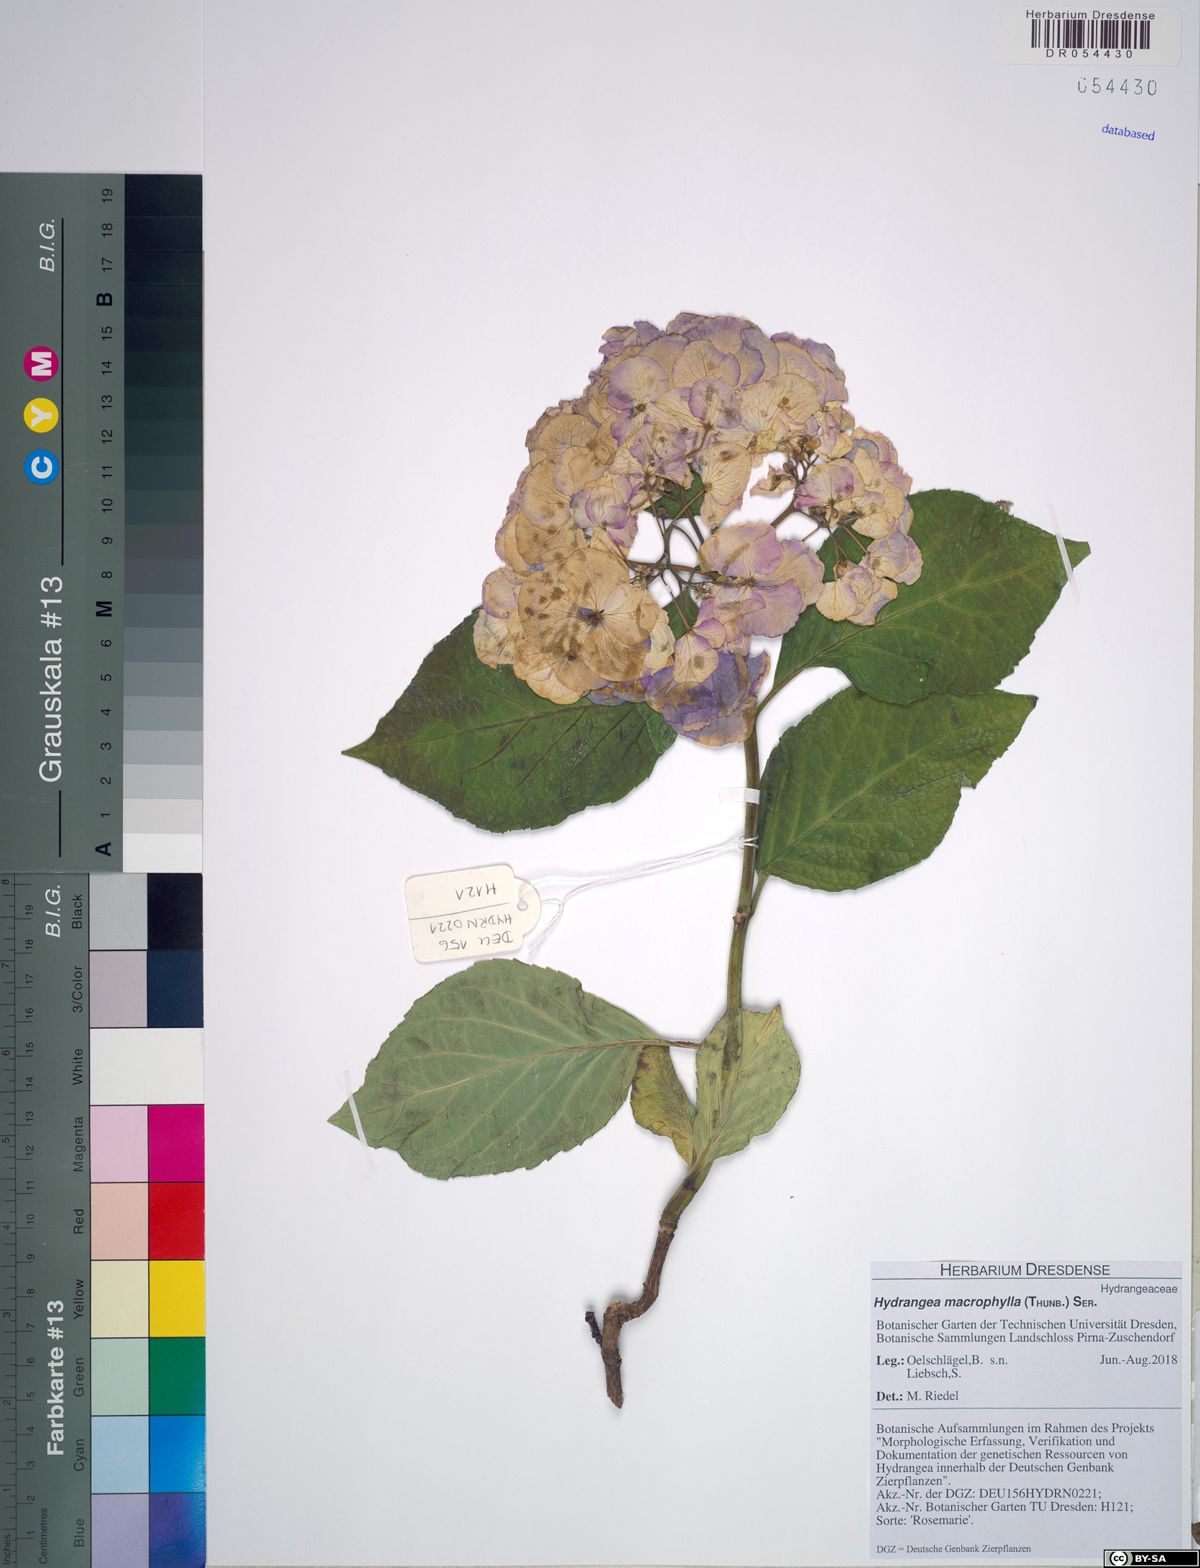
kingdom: Plantae
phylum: Tracheophyta
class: Magnoliopsida
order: Cornales
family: Hydrangeaceae
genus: Hydrangea
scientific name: Hydrangea macrophylla
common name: Hydrangea
